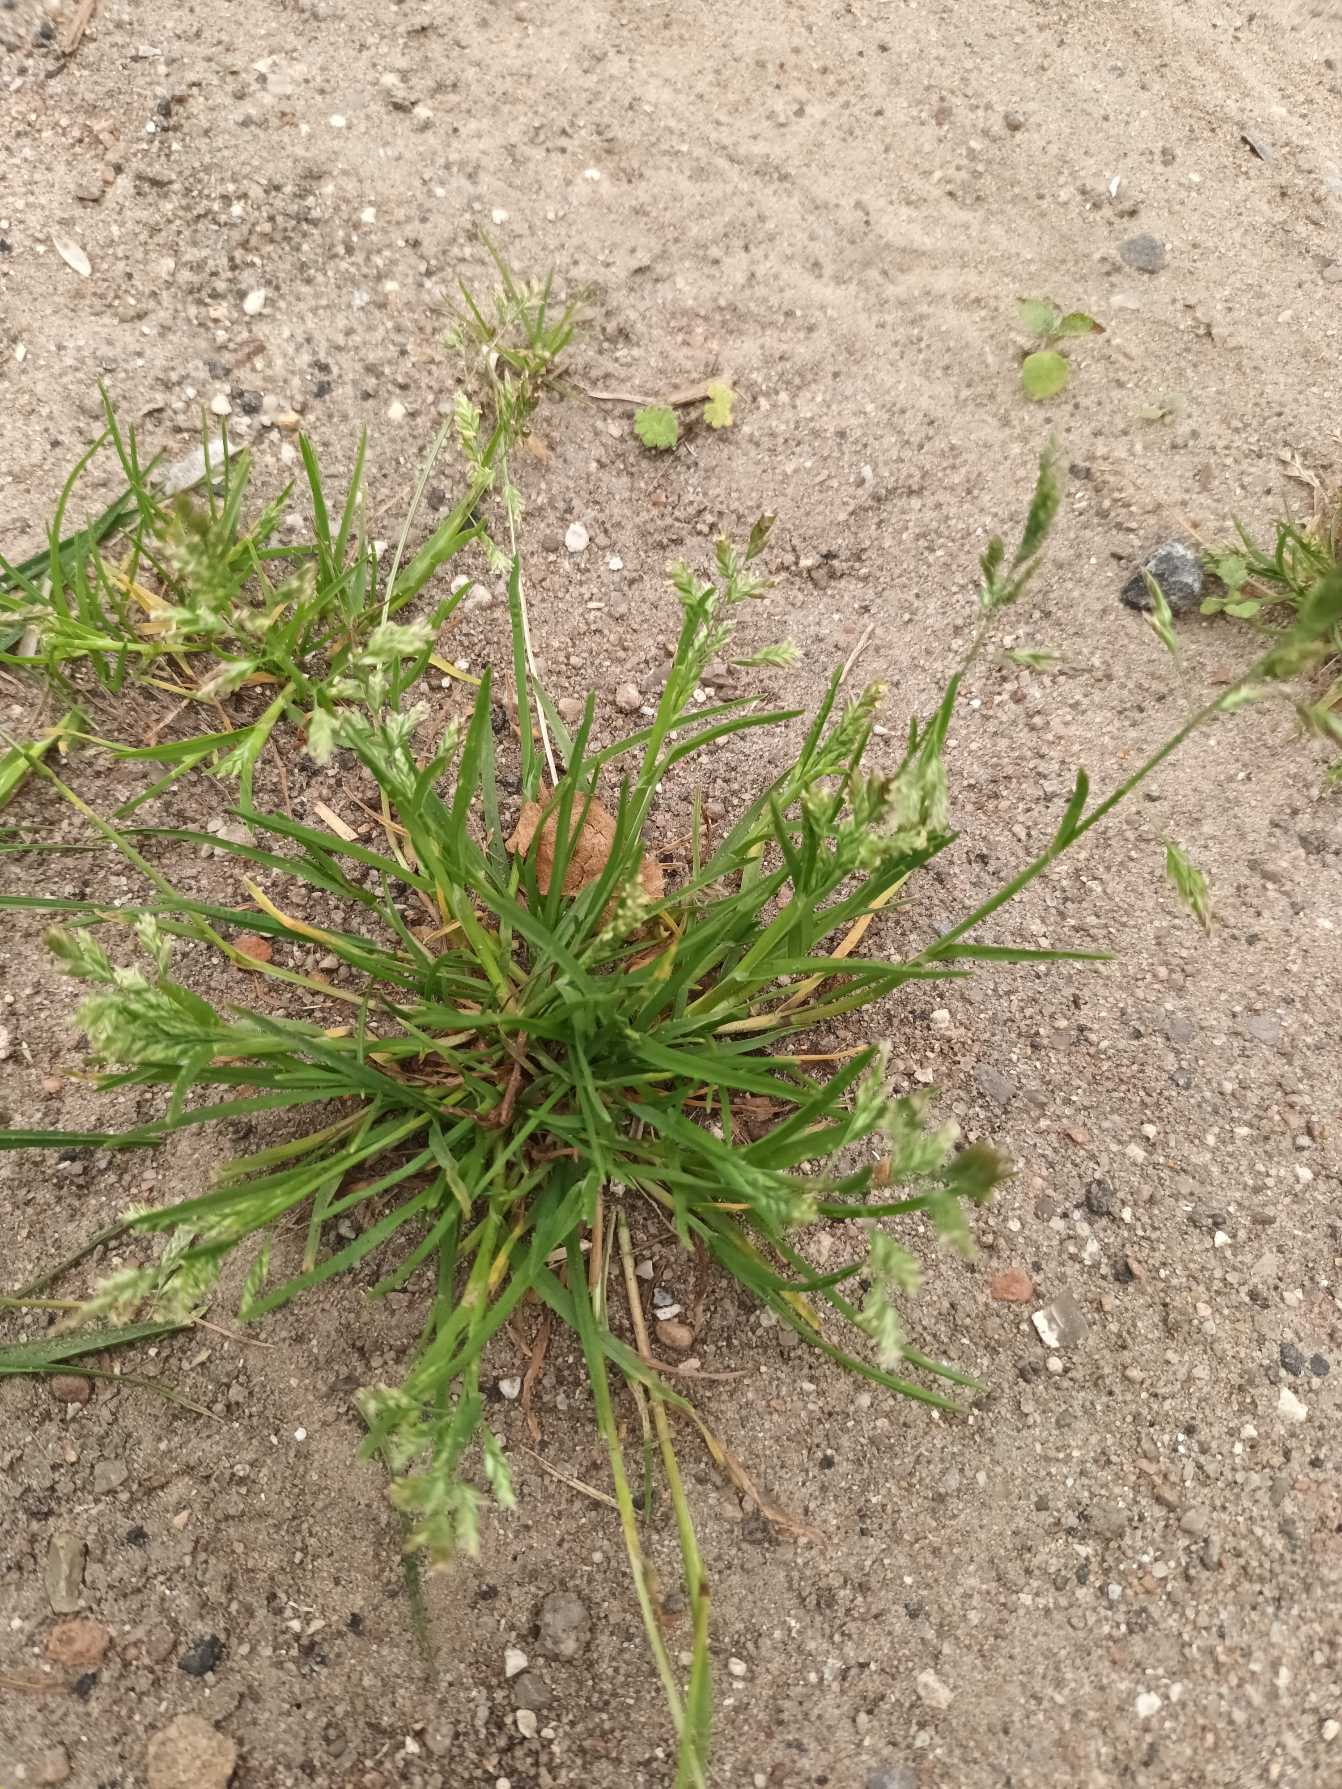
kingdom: Plantae
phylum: Tracheophyta
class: Liliopsida
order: Poales
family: Poaceae
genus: Poa
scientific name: Poa annua
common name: Enårig rapgræs
